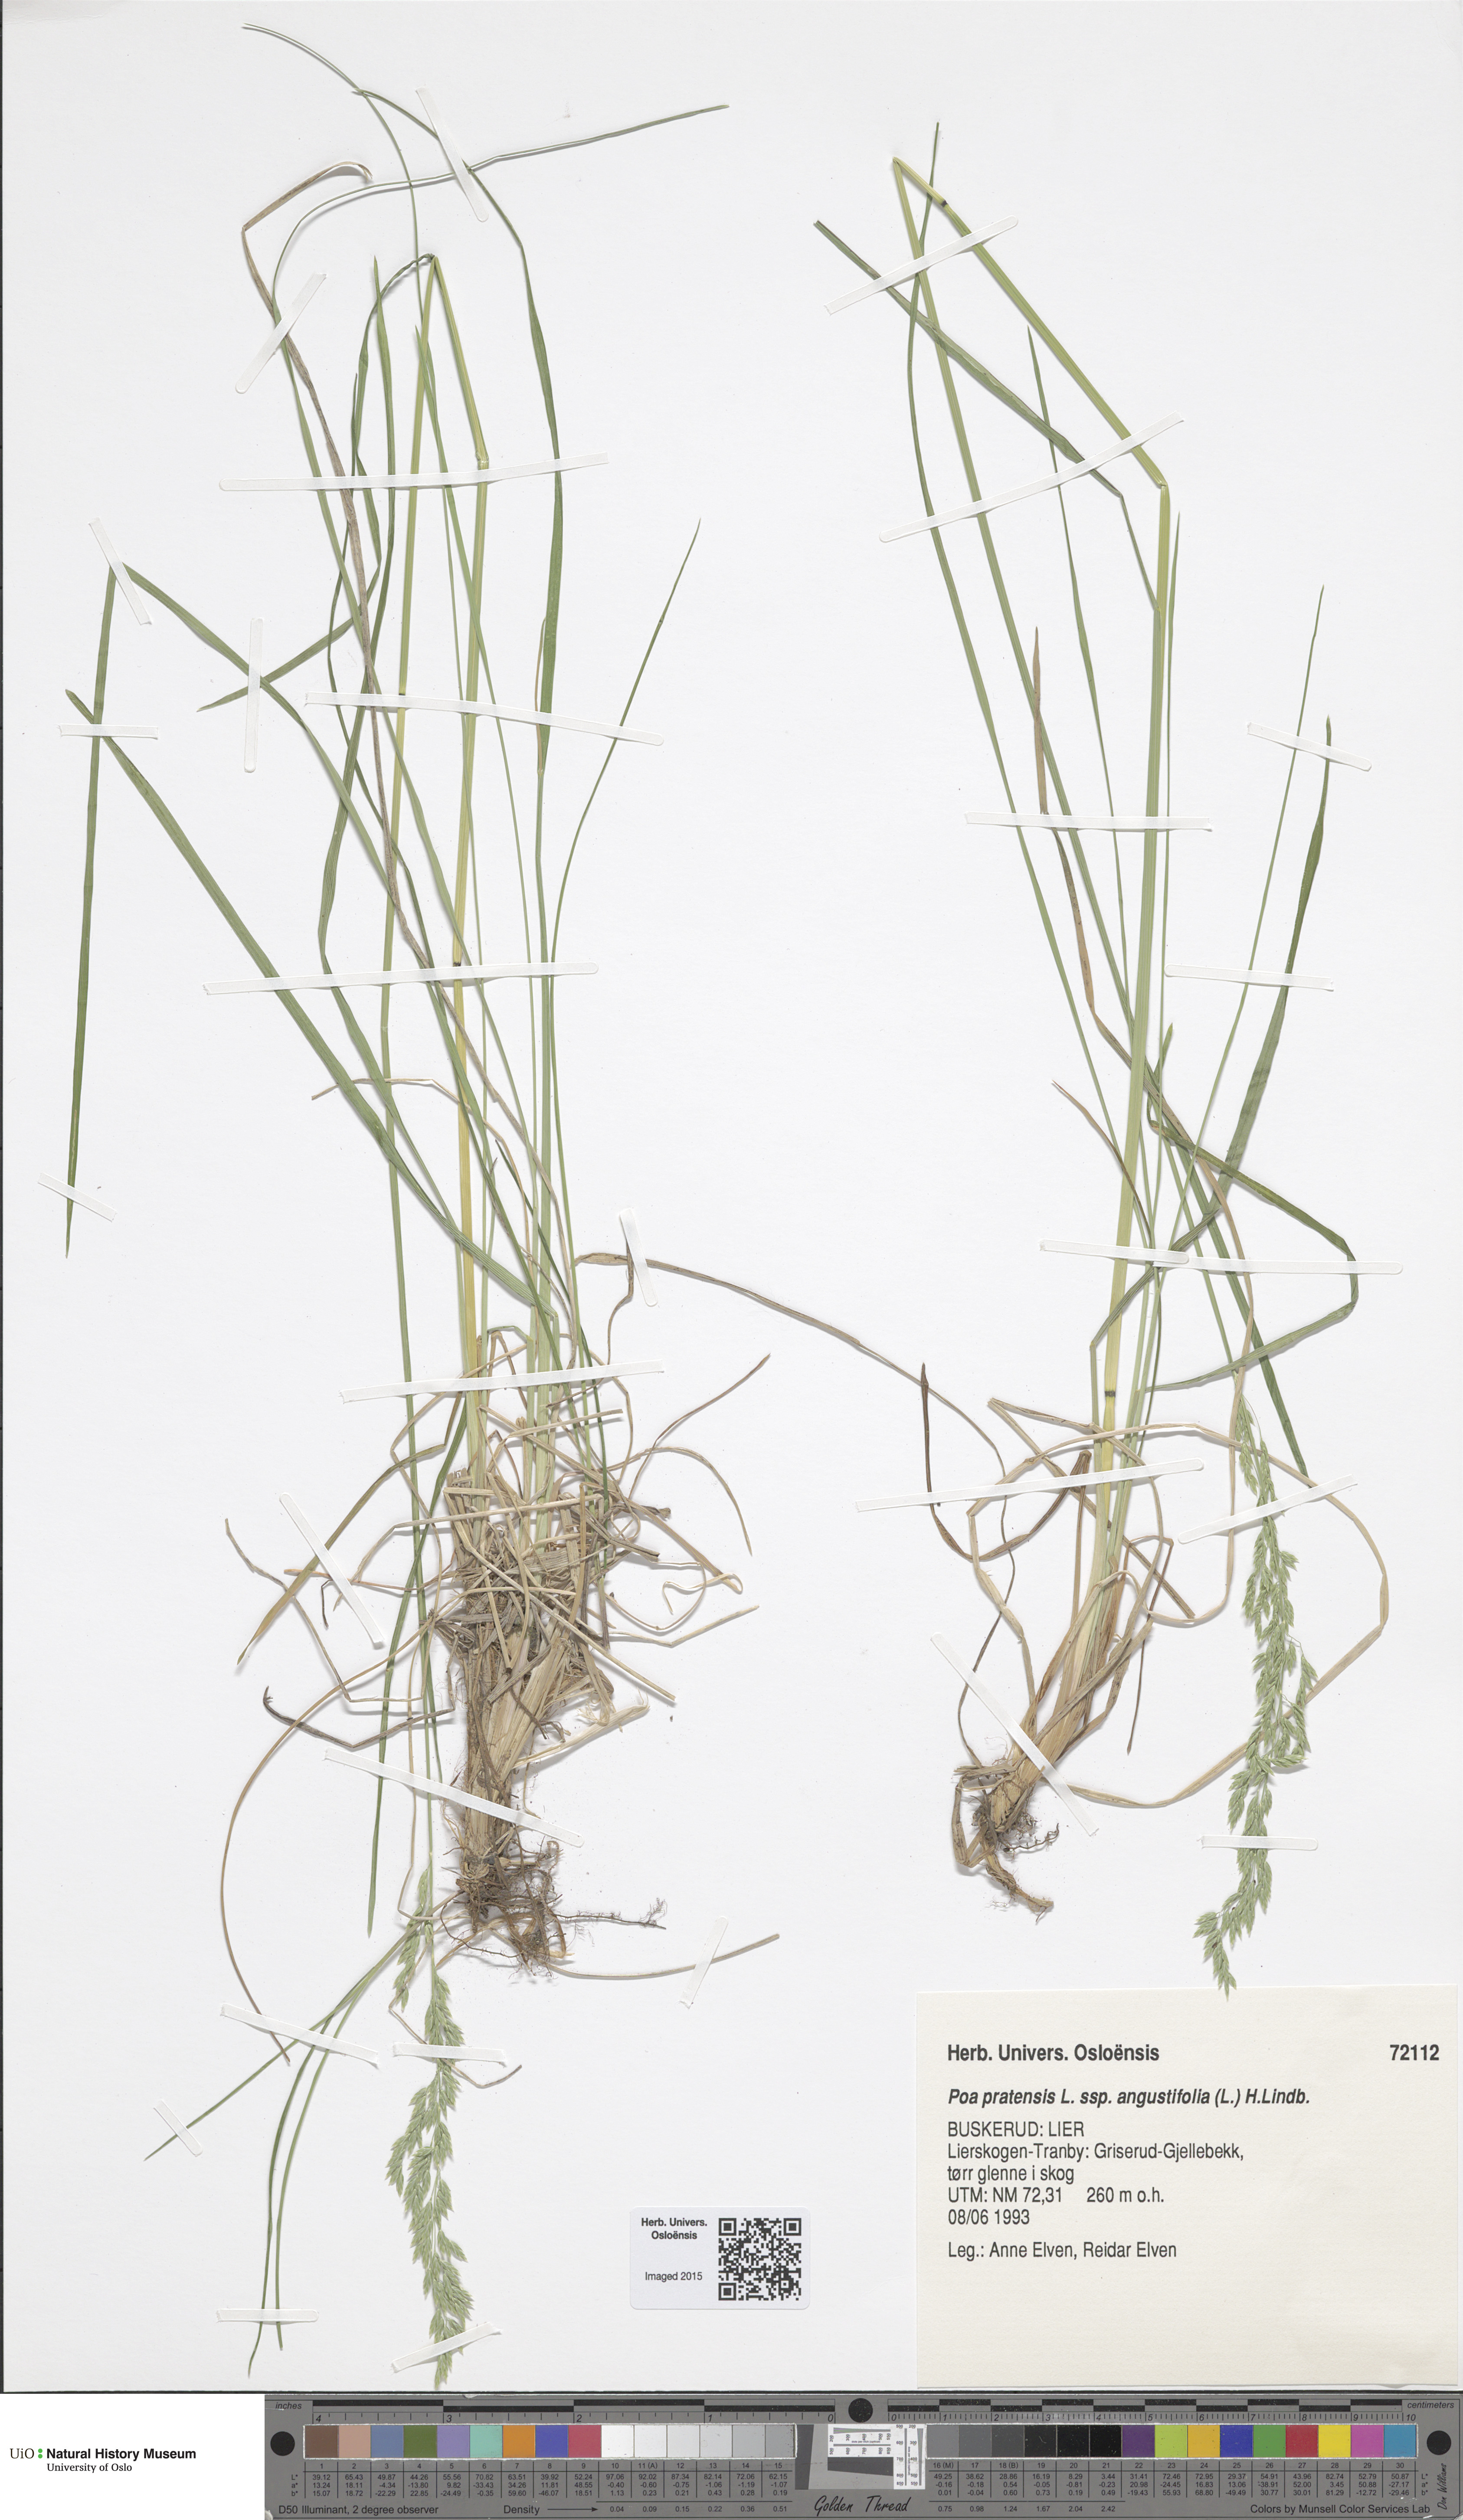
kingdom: Plantae
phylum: Tracheophyta
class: Liliopsida
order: Poales
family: Poaceae
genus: Poa
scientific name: Poa angustifolia
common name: Narrow-leaved meadow-grass
